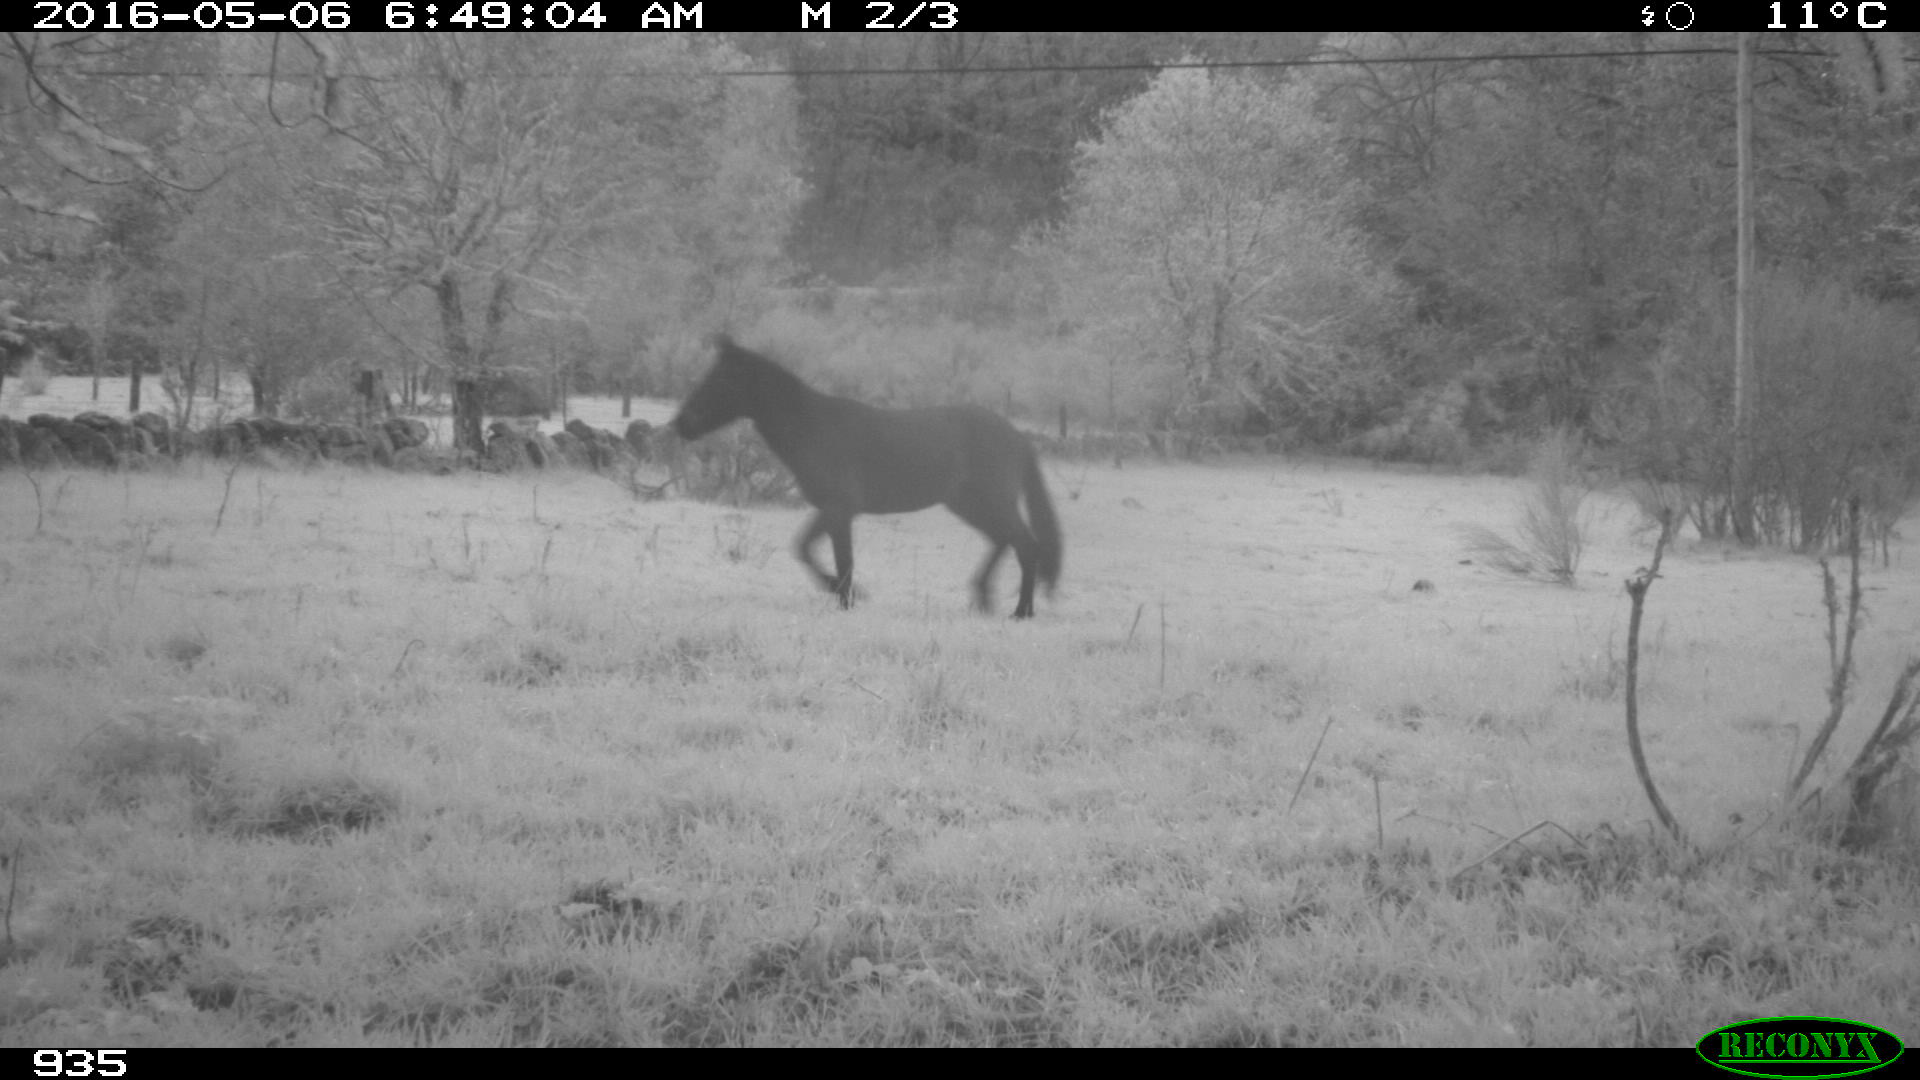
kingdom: Animalia
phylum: Chordata
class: Mammalia
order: Perissodactyla
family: Equidae
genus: Equus
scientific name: Equus caballus
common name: Horse
